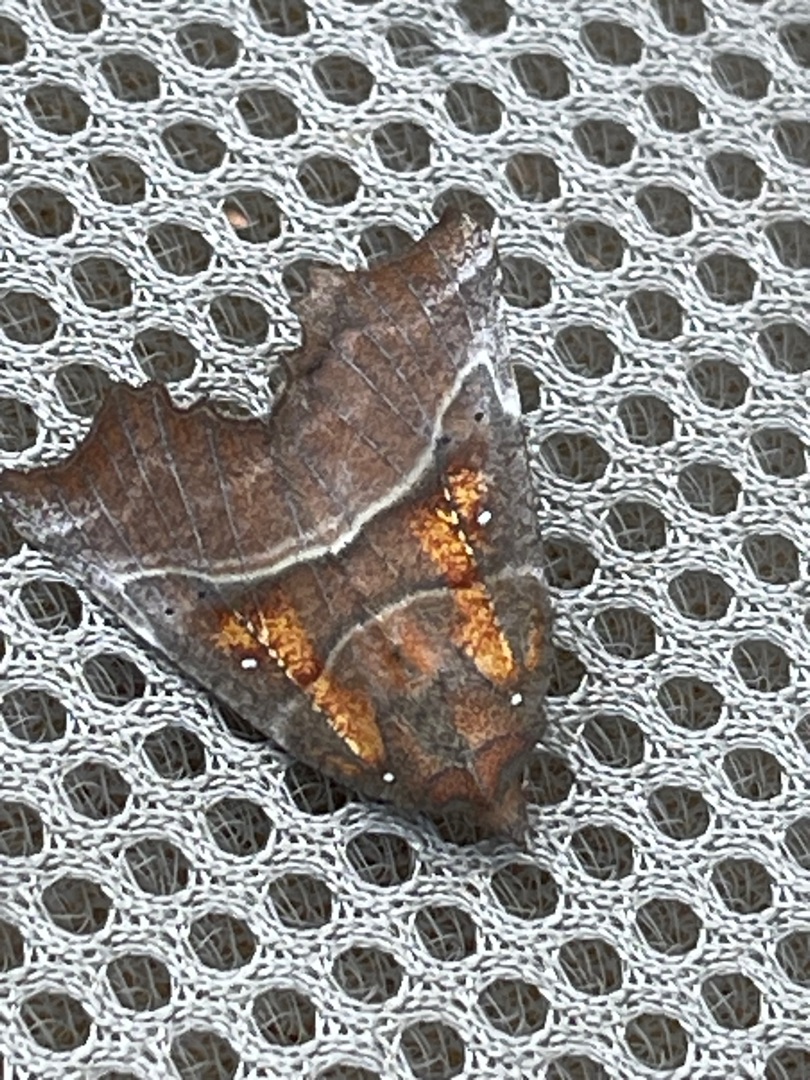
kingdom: Animalia
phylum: Arthropoda
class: Insecta
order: Lepidoptera
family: Erebidae
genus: Scoliopteryx
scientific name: Scoliopteryx libatrix
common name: Husmoderugle
